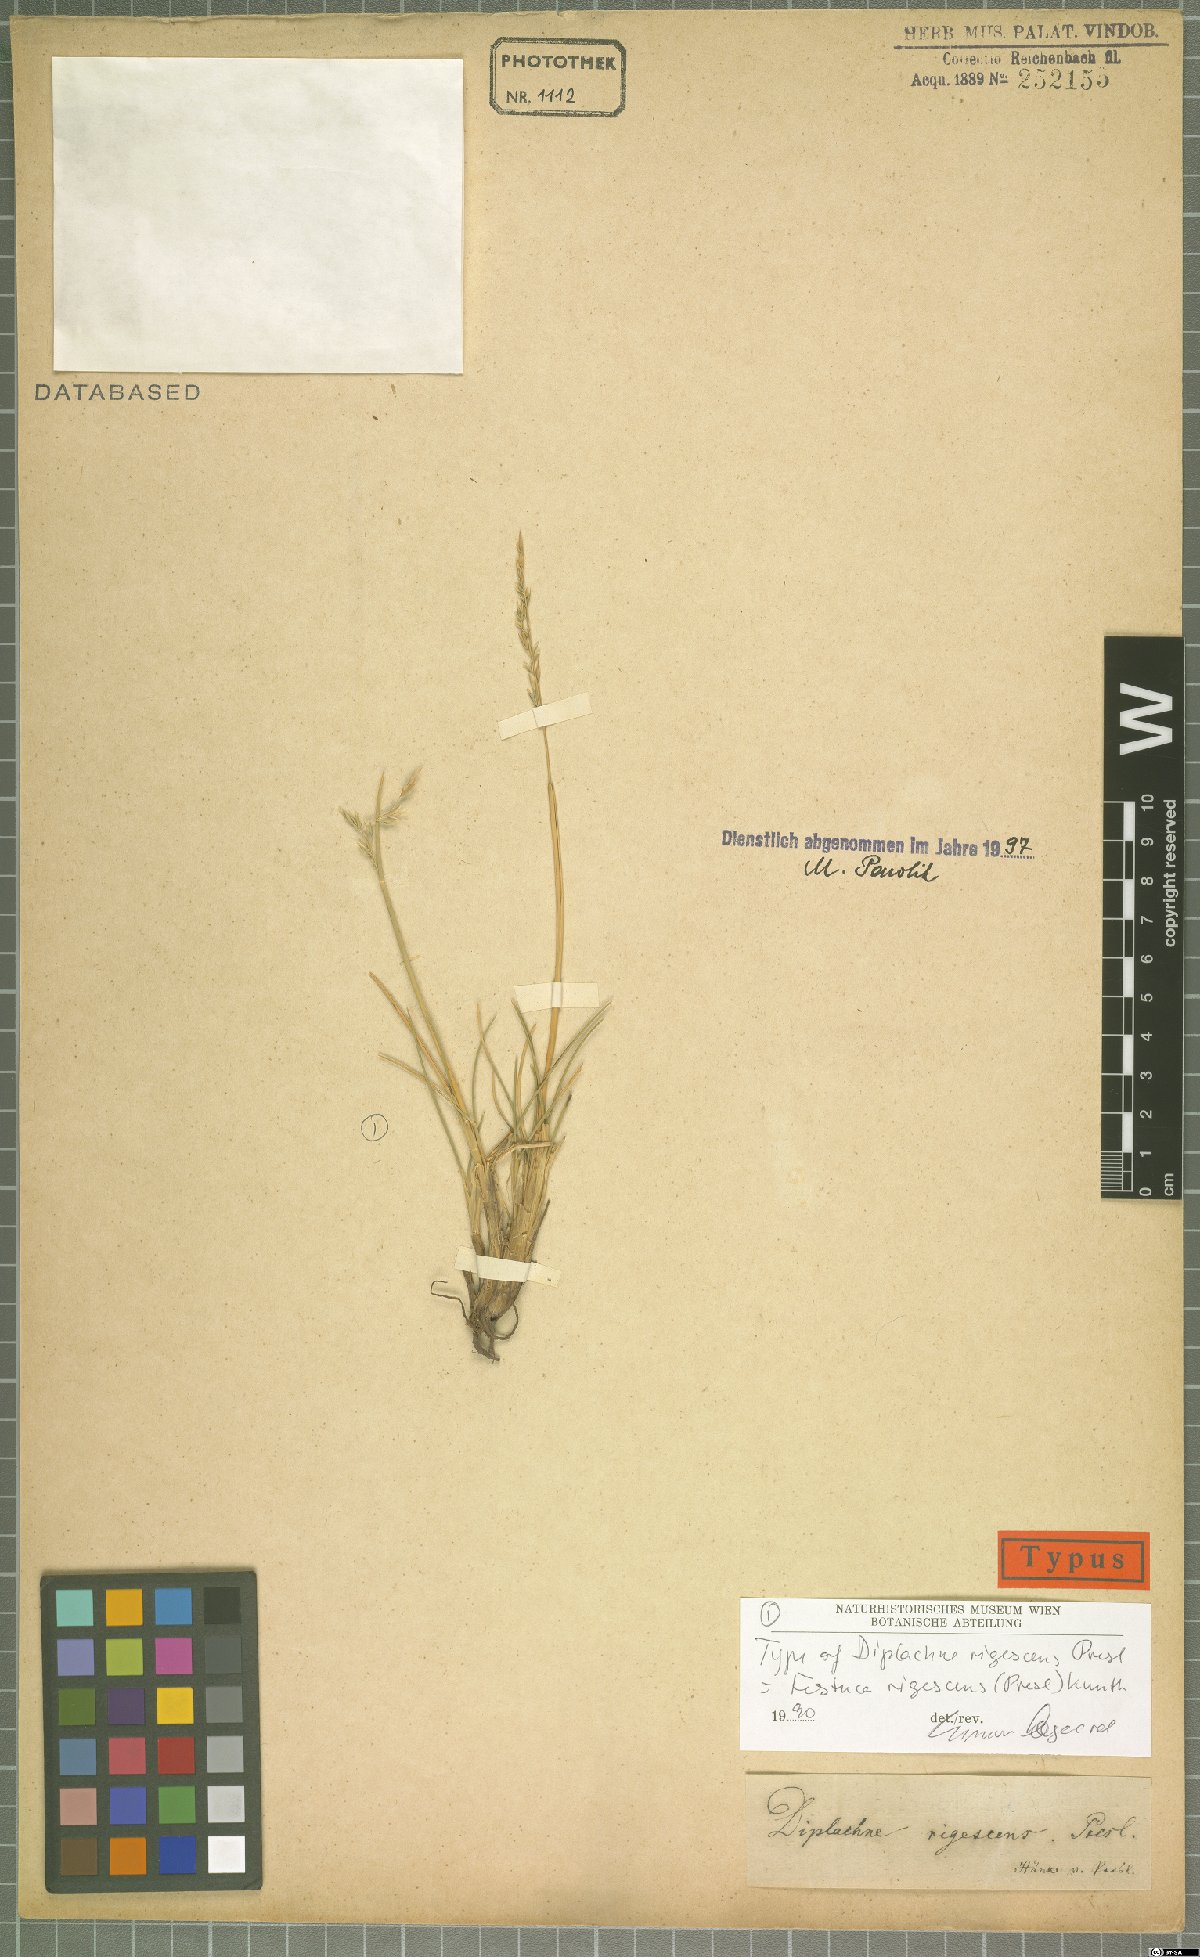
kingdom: Plantae
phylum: Tracheophyta
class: Liliopsida
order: Poales
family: Poaceae
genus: Festuca
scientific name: Festuca rigescens
